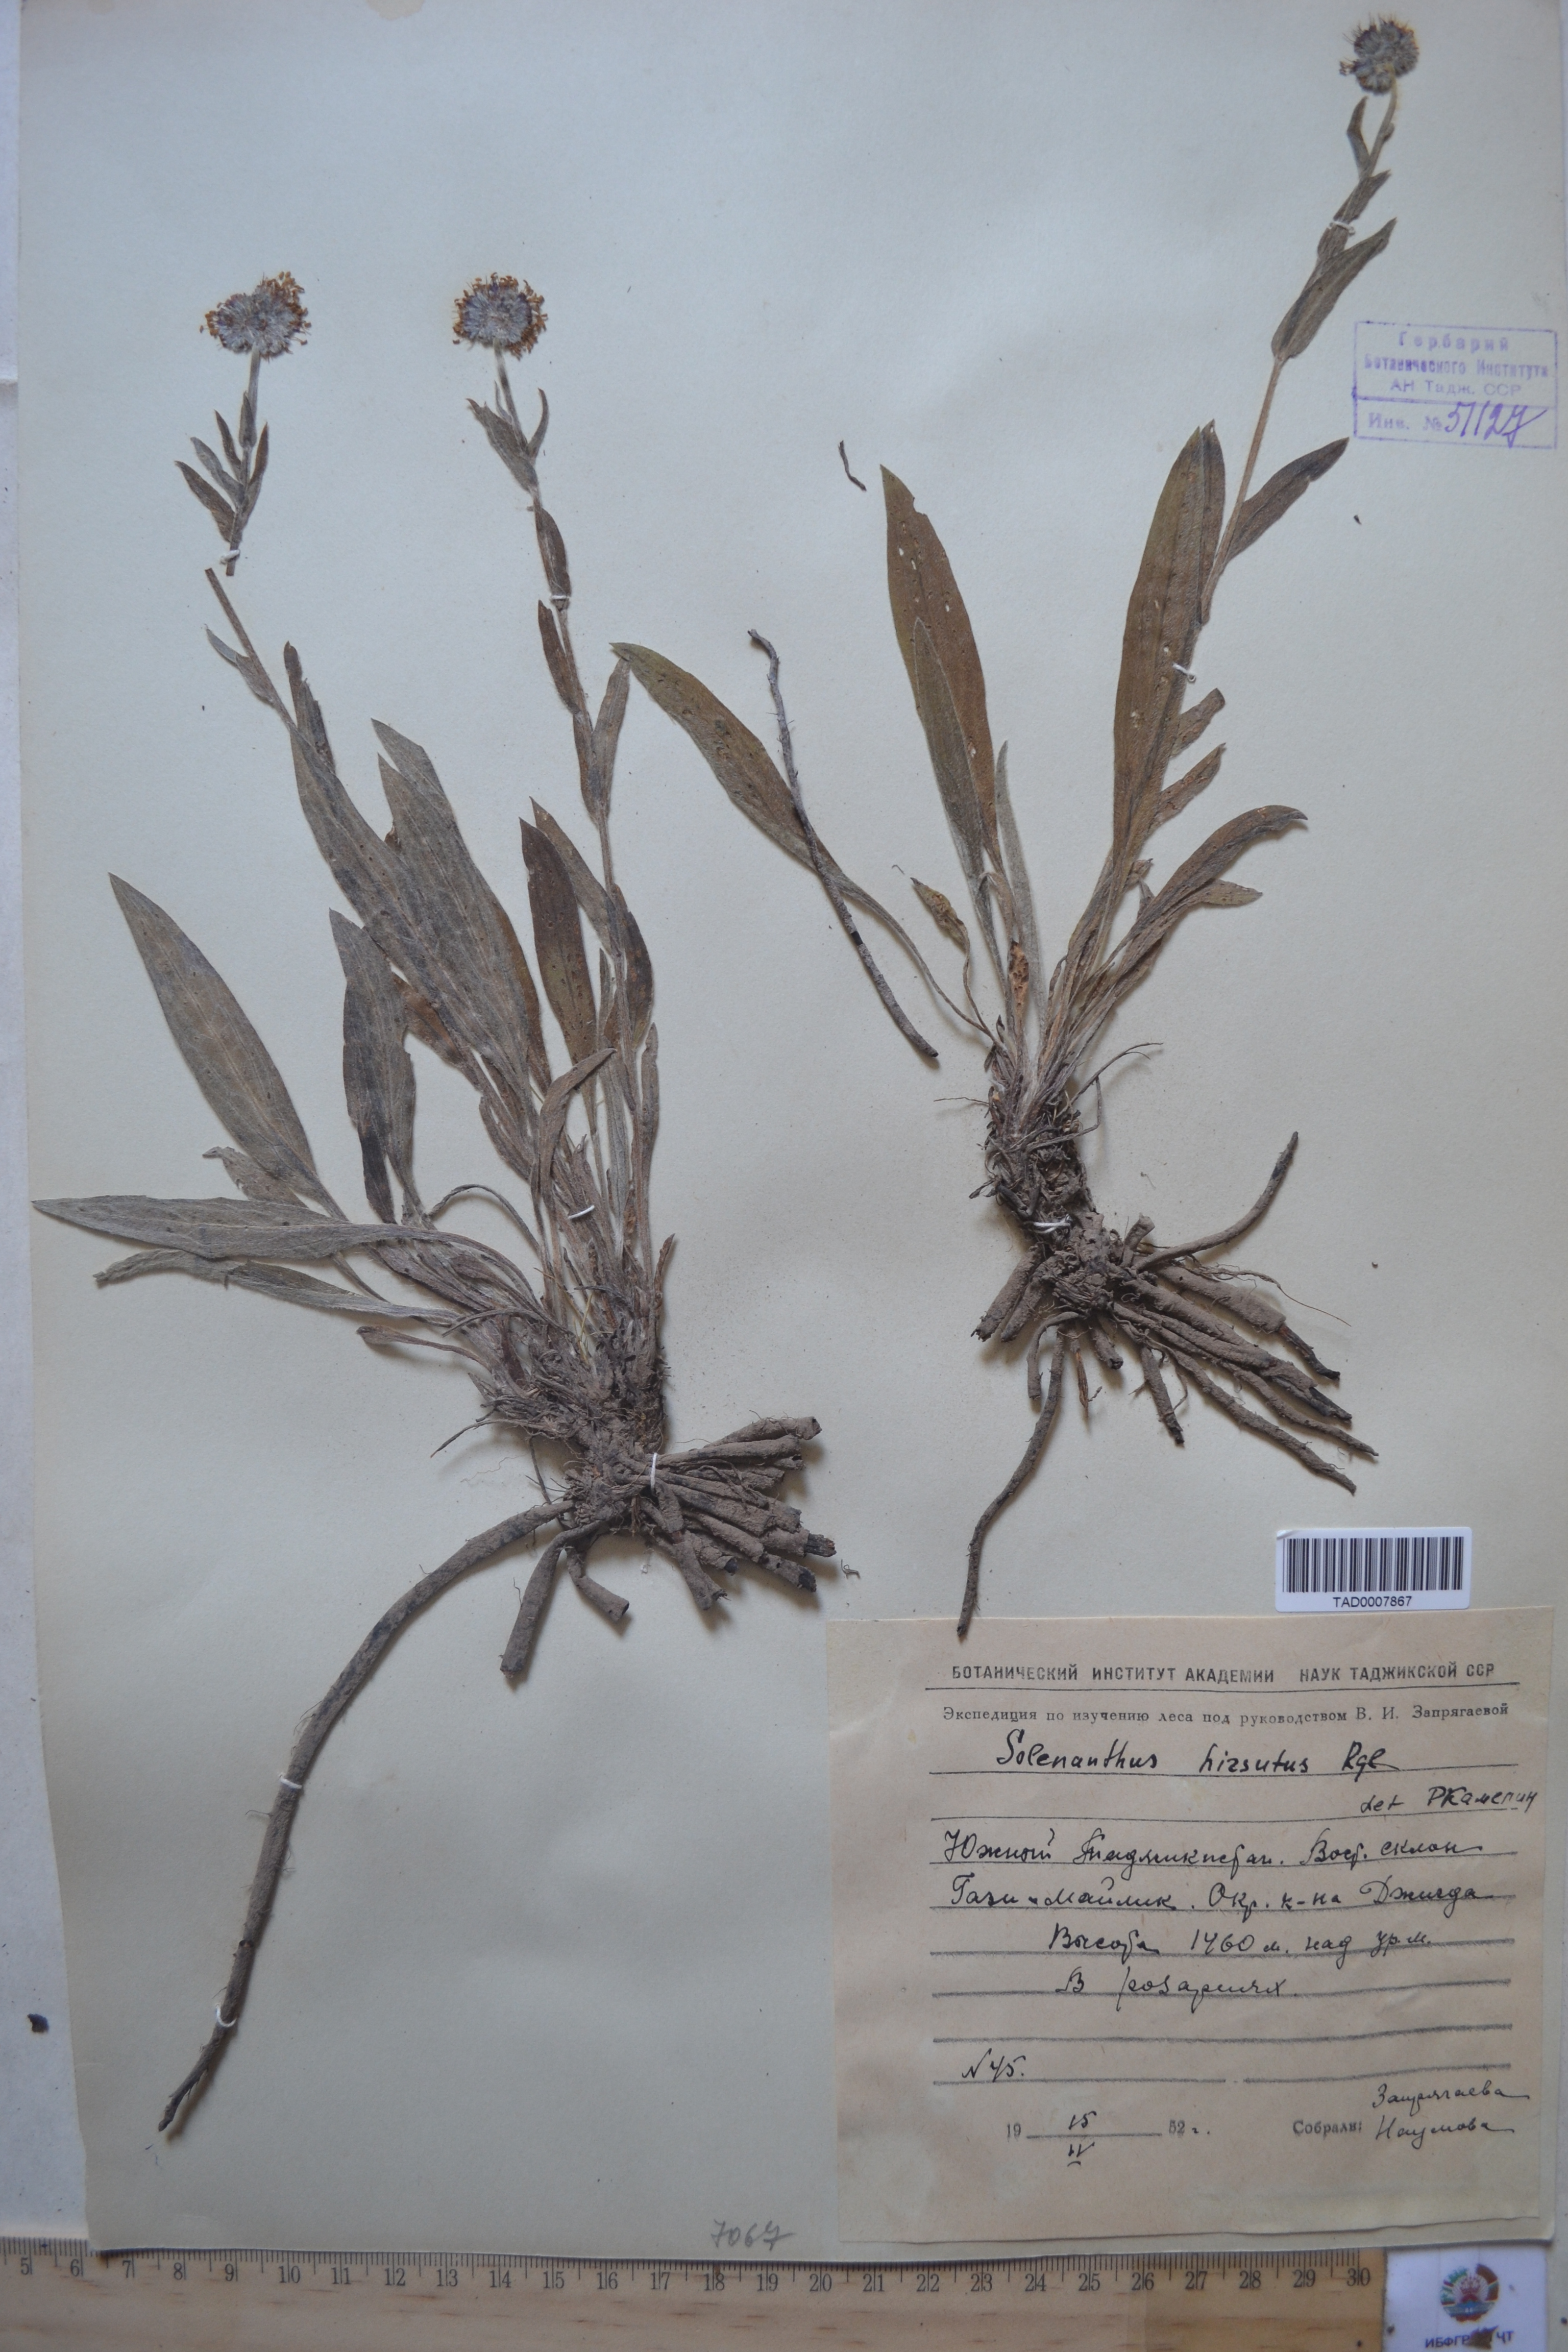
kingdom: Plantae
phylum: Tracheophyta
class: Magnoliopsida
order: Boraginales
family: Boraginaceae
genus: Solenanthus
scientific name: Solenanthus hirsutus
